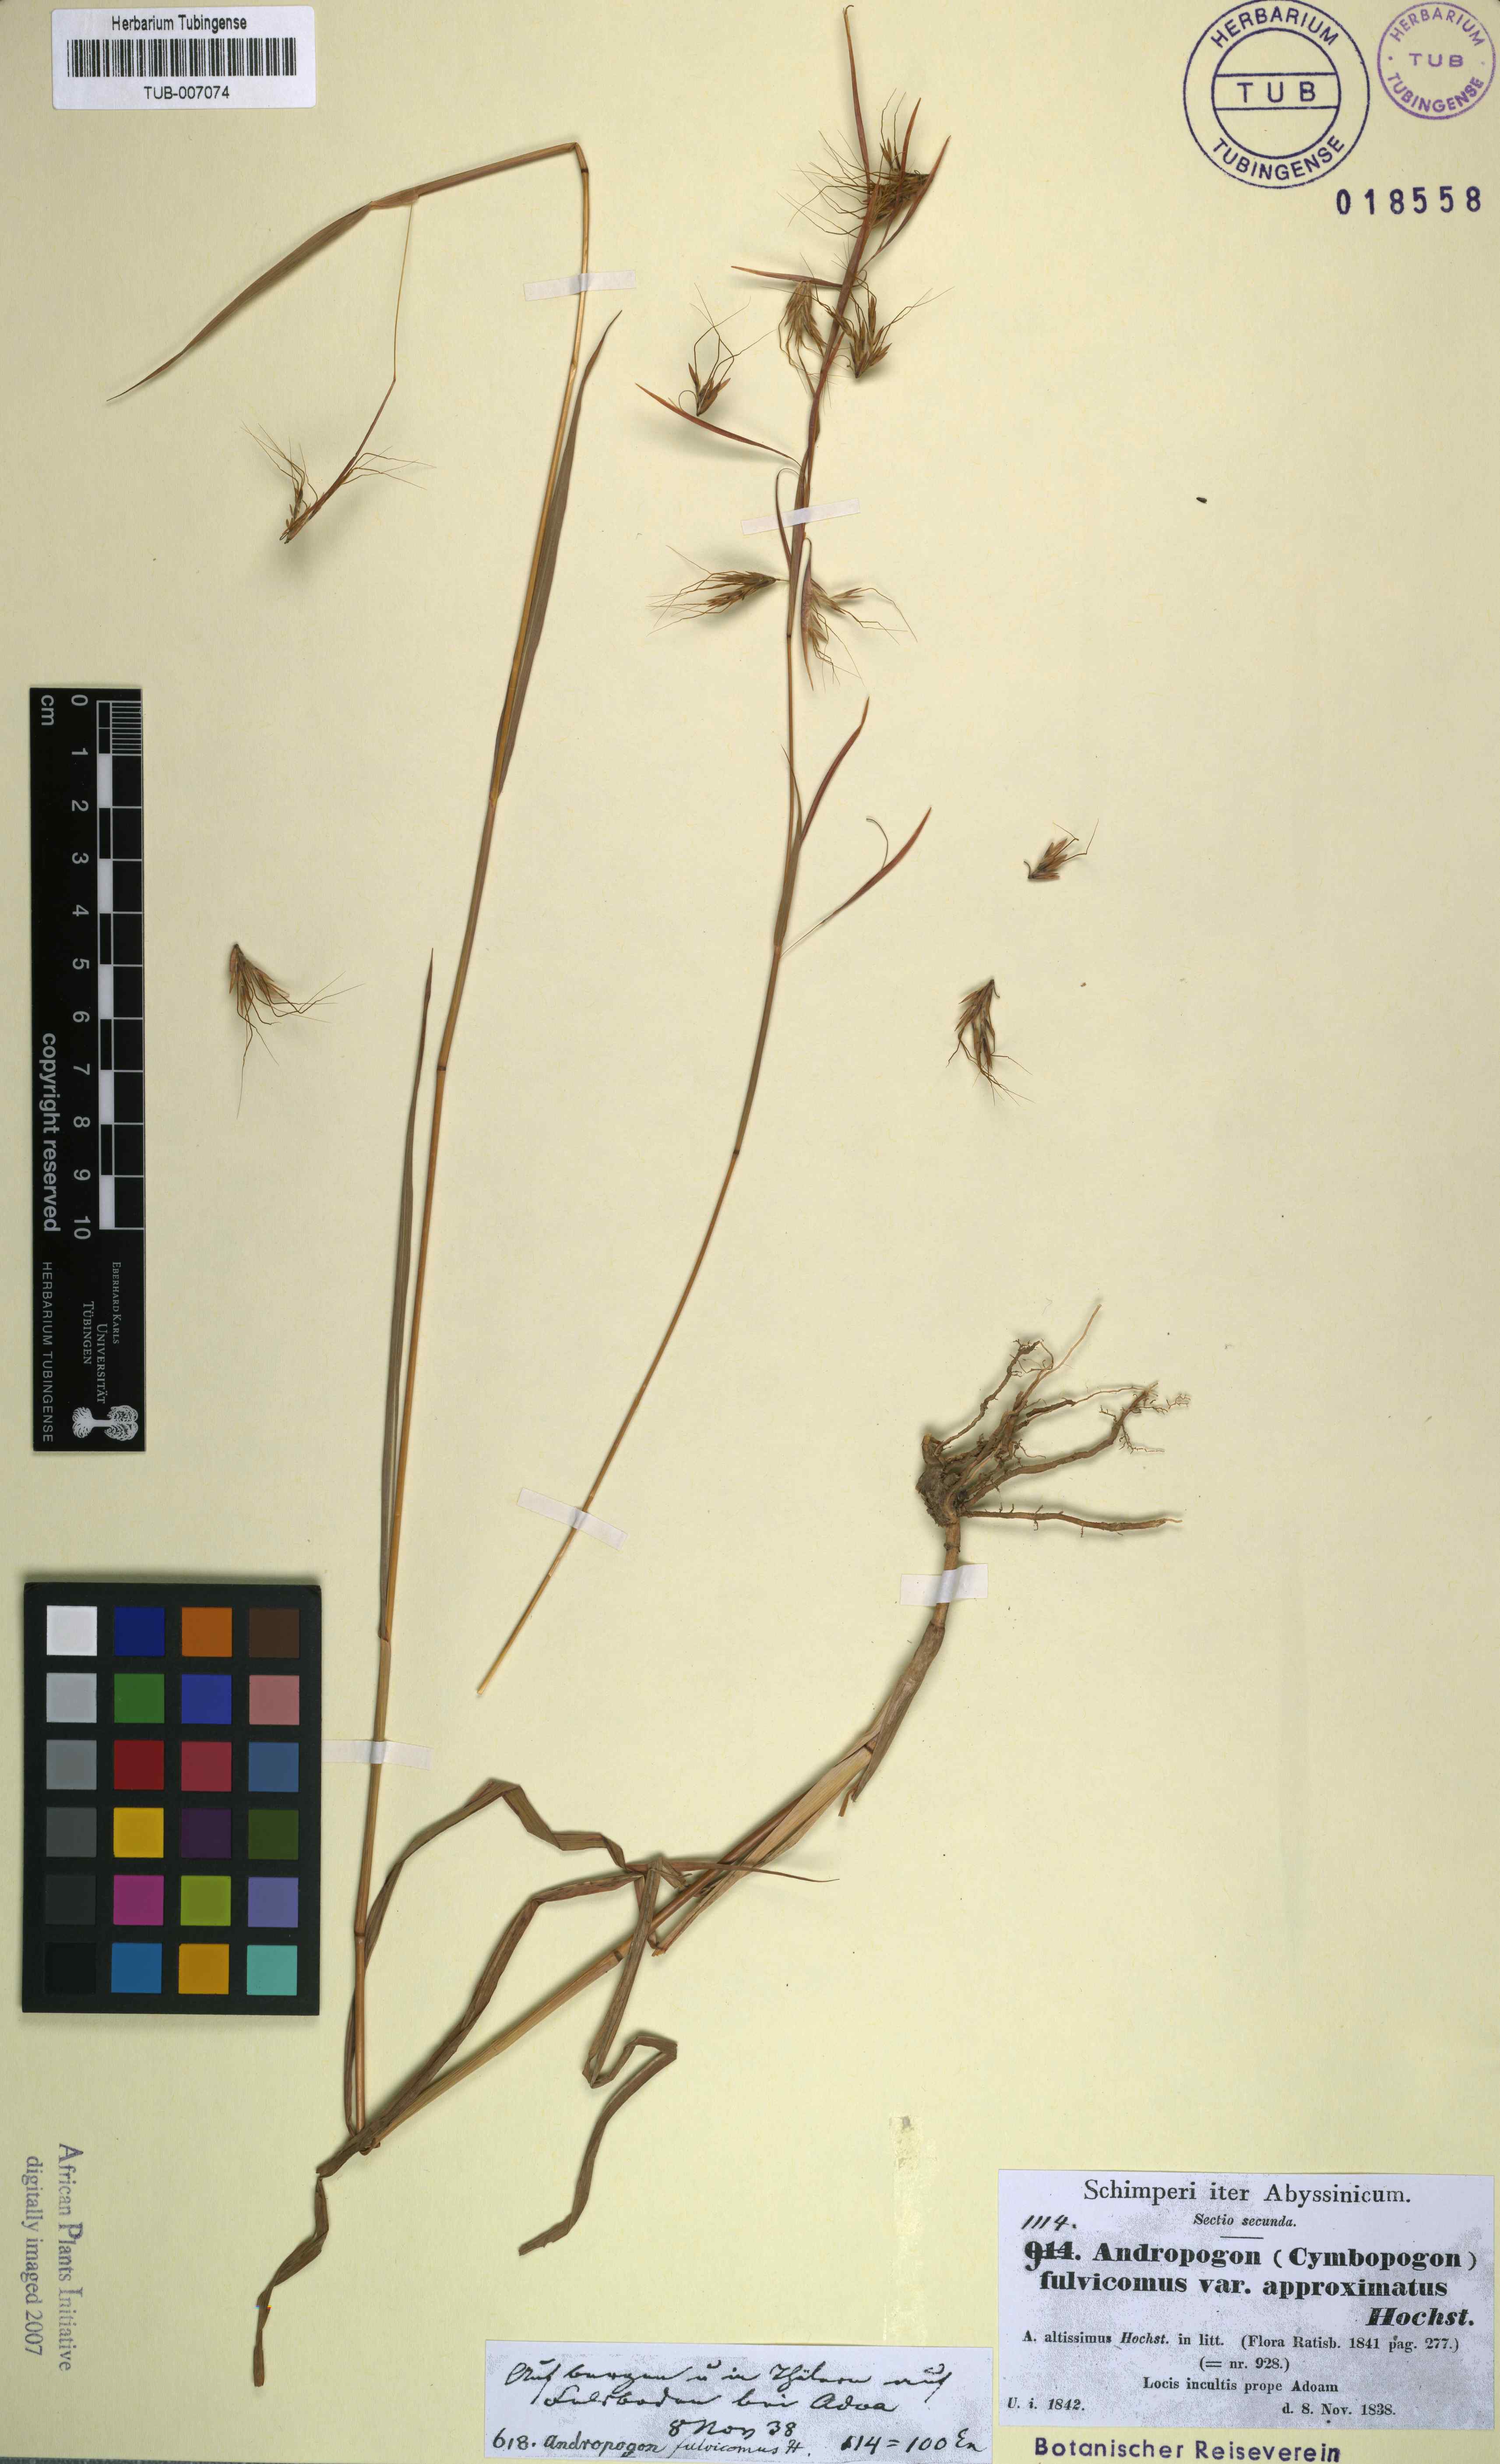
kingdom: Plantae
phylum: Tracheophyta
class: Liliopsida
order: Poales
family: Poaceae
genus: Hyparrhenia
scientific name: Hyparrhenia rufa
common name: Jaraguagrass
